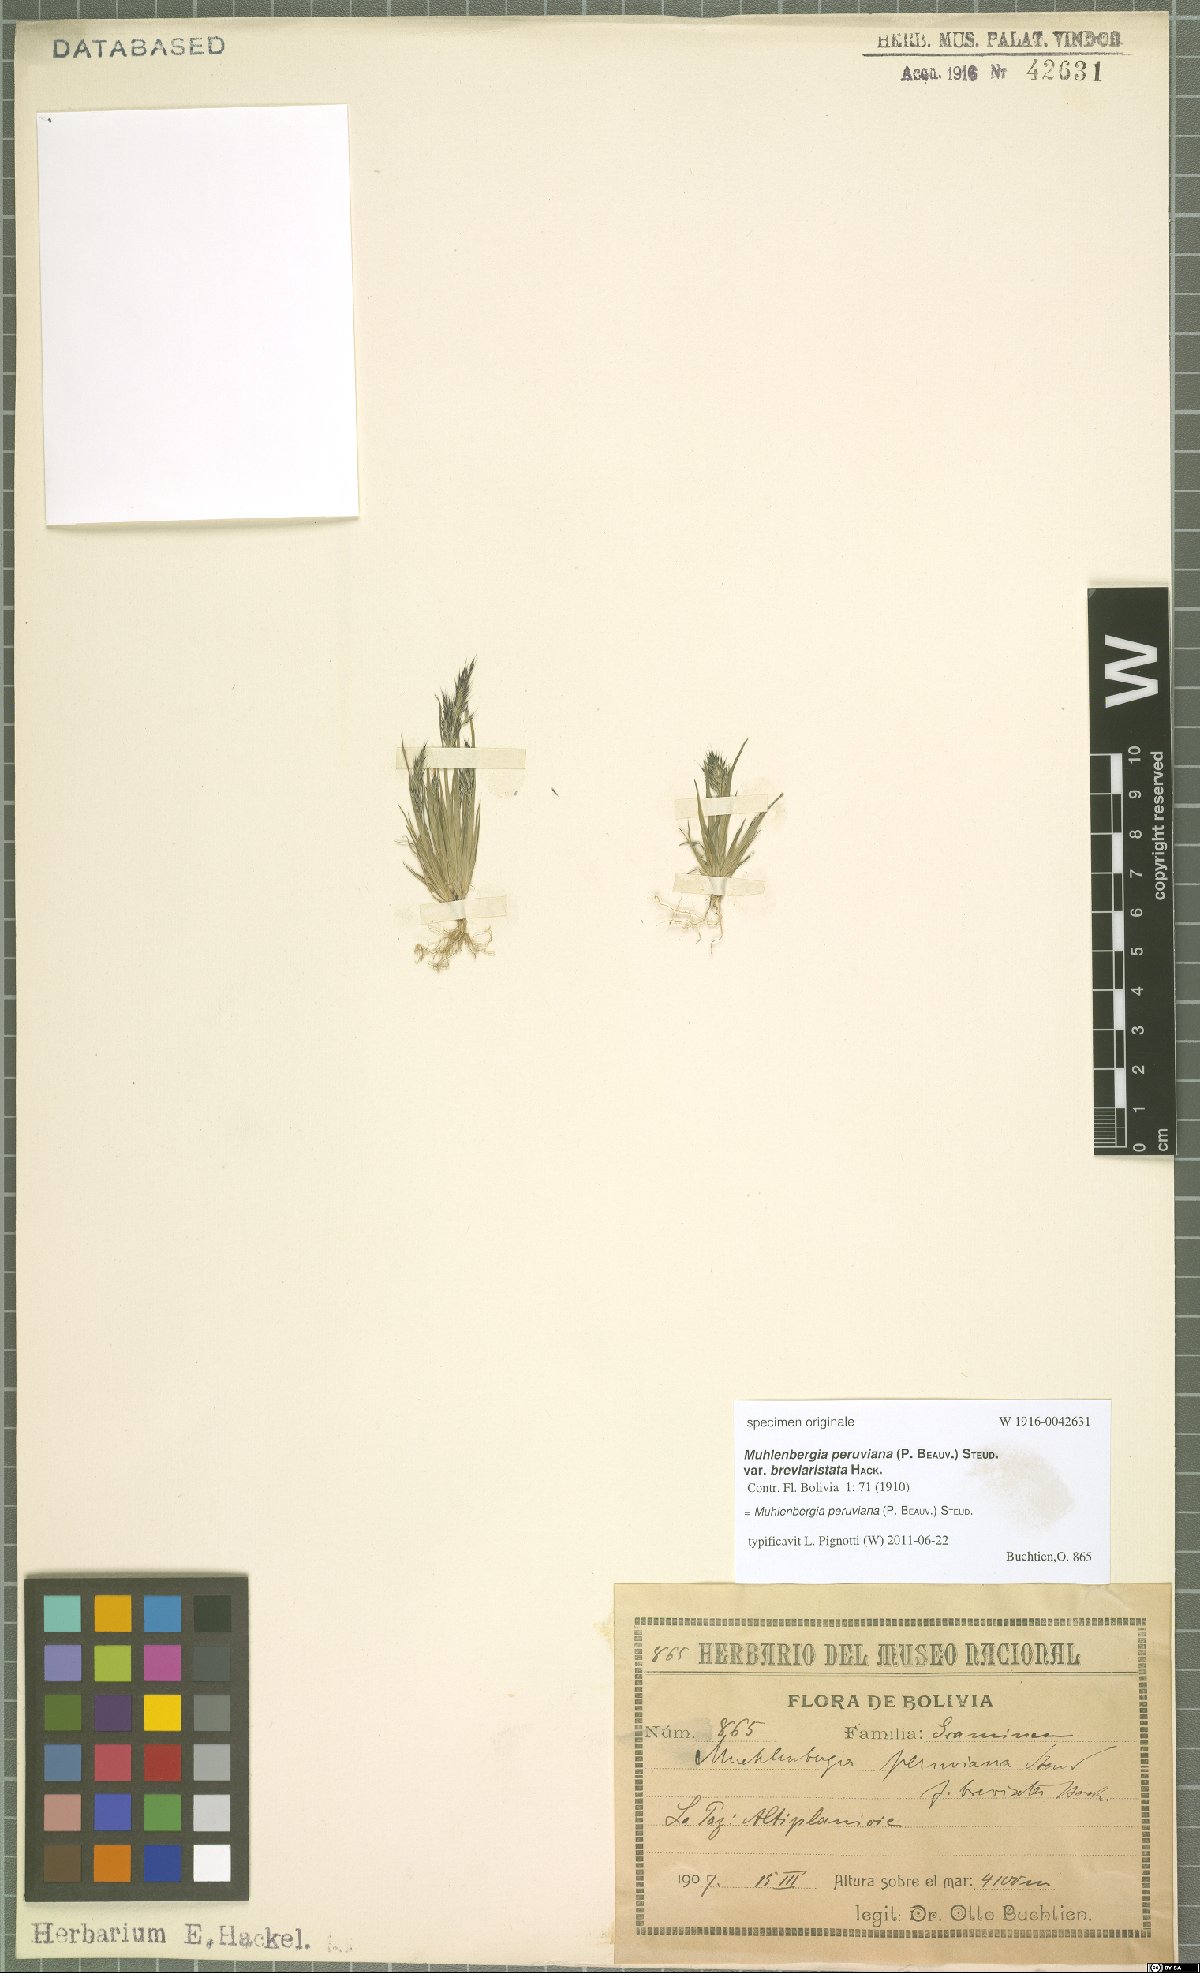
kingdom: Plantae
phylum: Tracheophyta
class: Liliopsida
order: Poales
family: Poaceae
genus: Muhlenbergia
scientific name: Muhlenbergia peruviana
